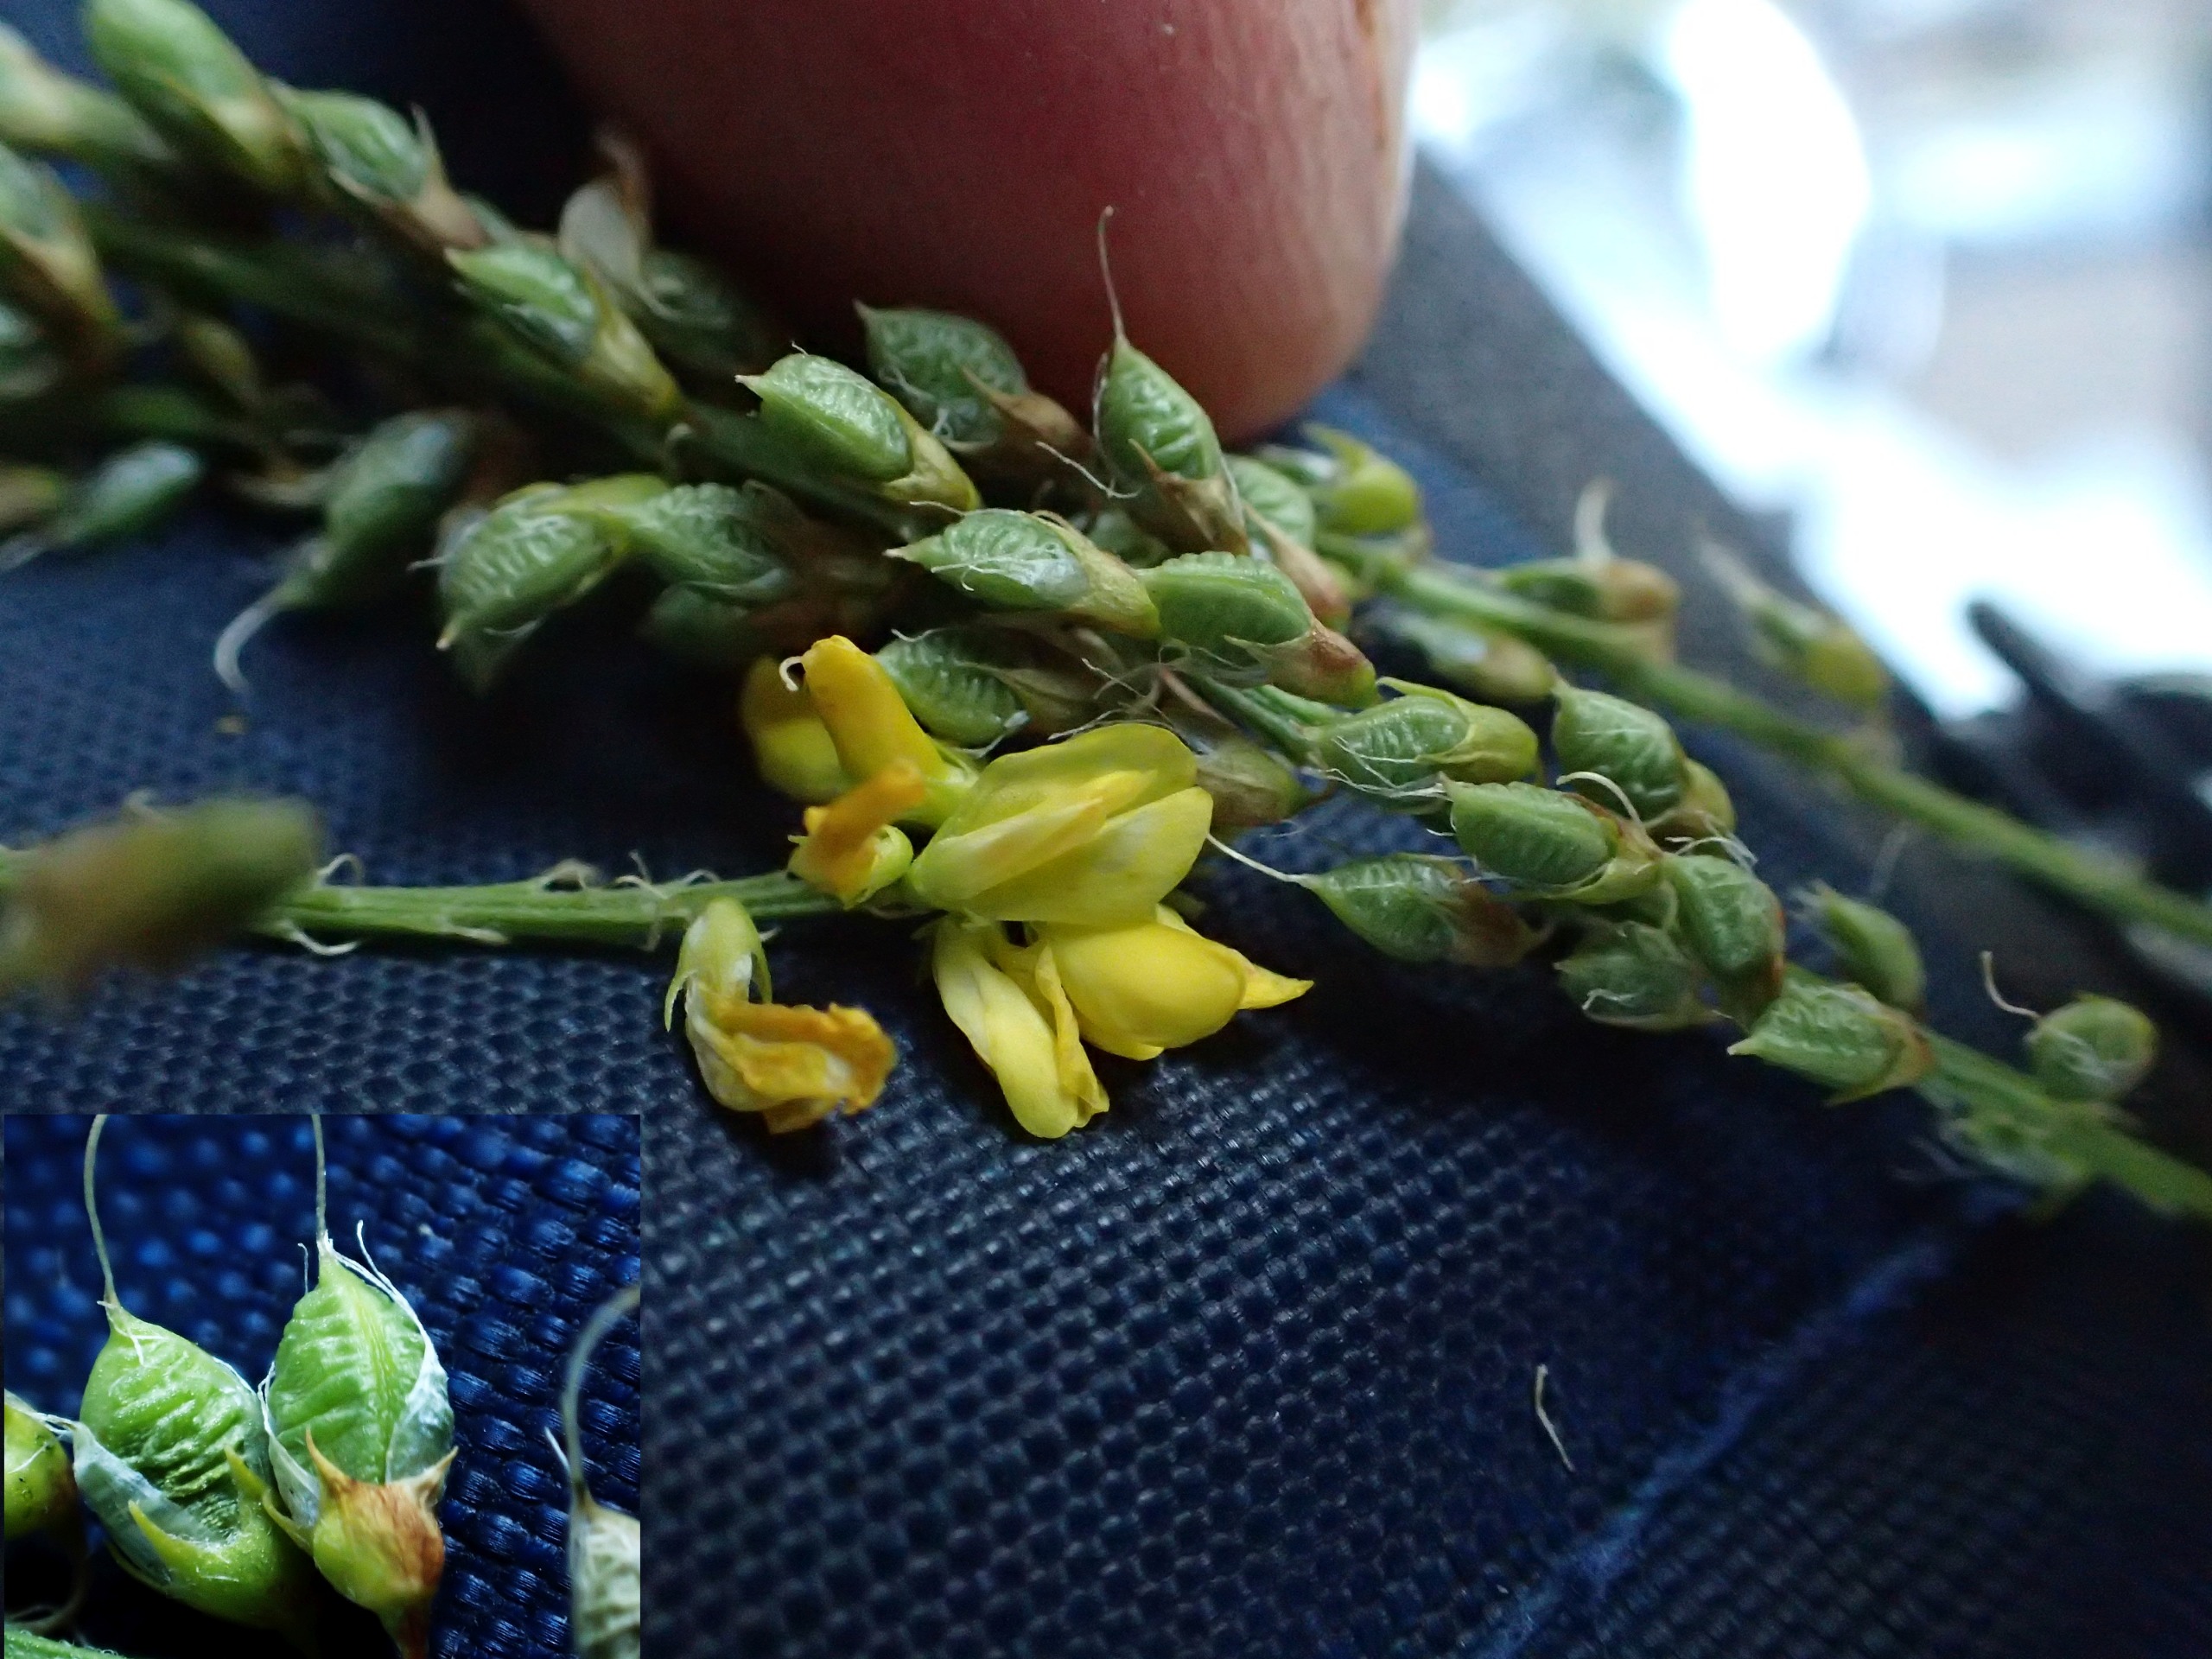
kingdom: Plantae
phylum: Tracheophyta
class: Magnoliopsida
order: Fabales
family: Fabaceae
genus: Melilotus
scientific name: Melilotus officinalis
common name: Mark-stenkløver
